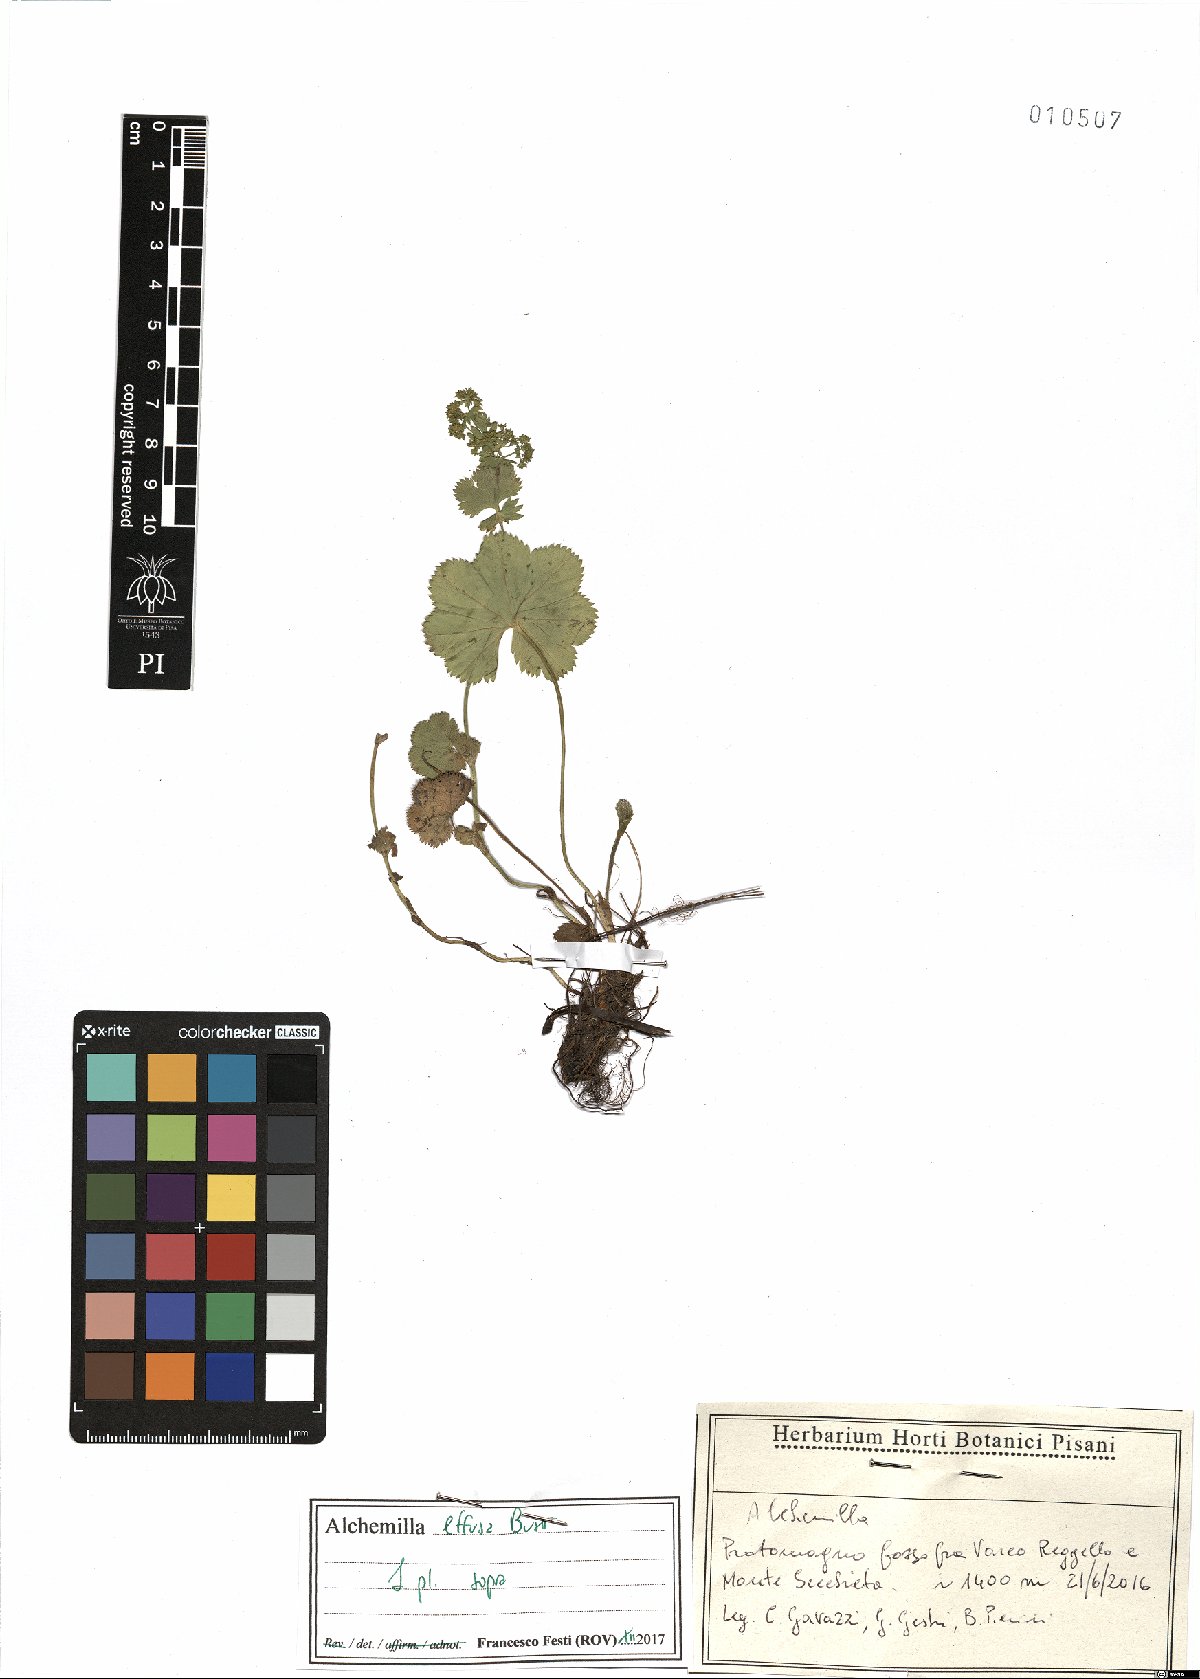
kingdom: Plantae
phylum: Tracheophyta
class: Magnoliopsida
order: Rosales
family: Rosaceae
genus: Alchemilla
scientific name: Alchemilla effusa
